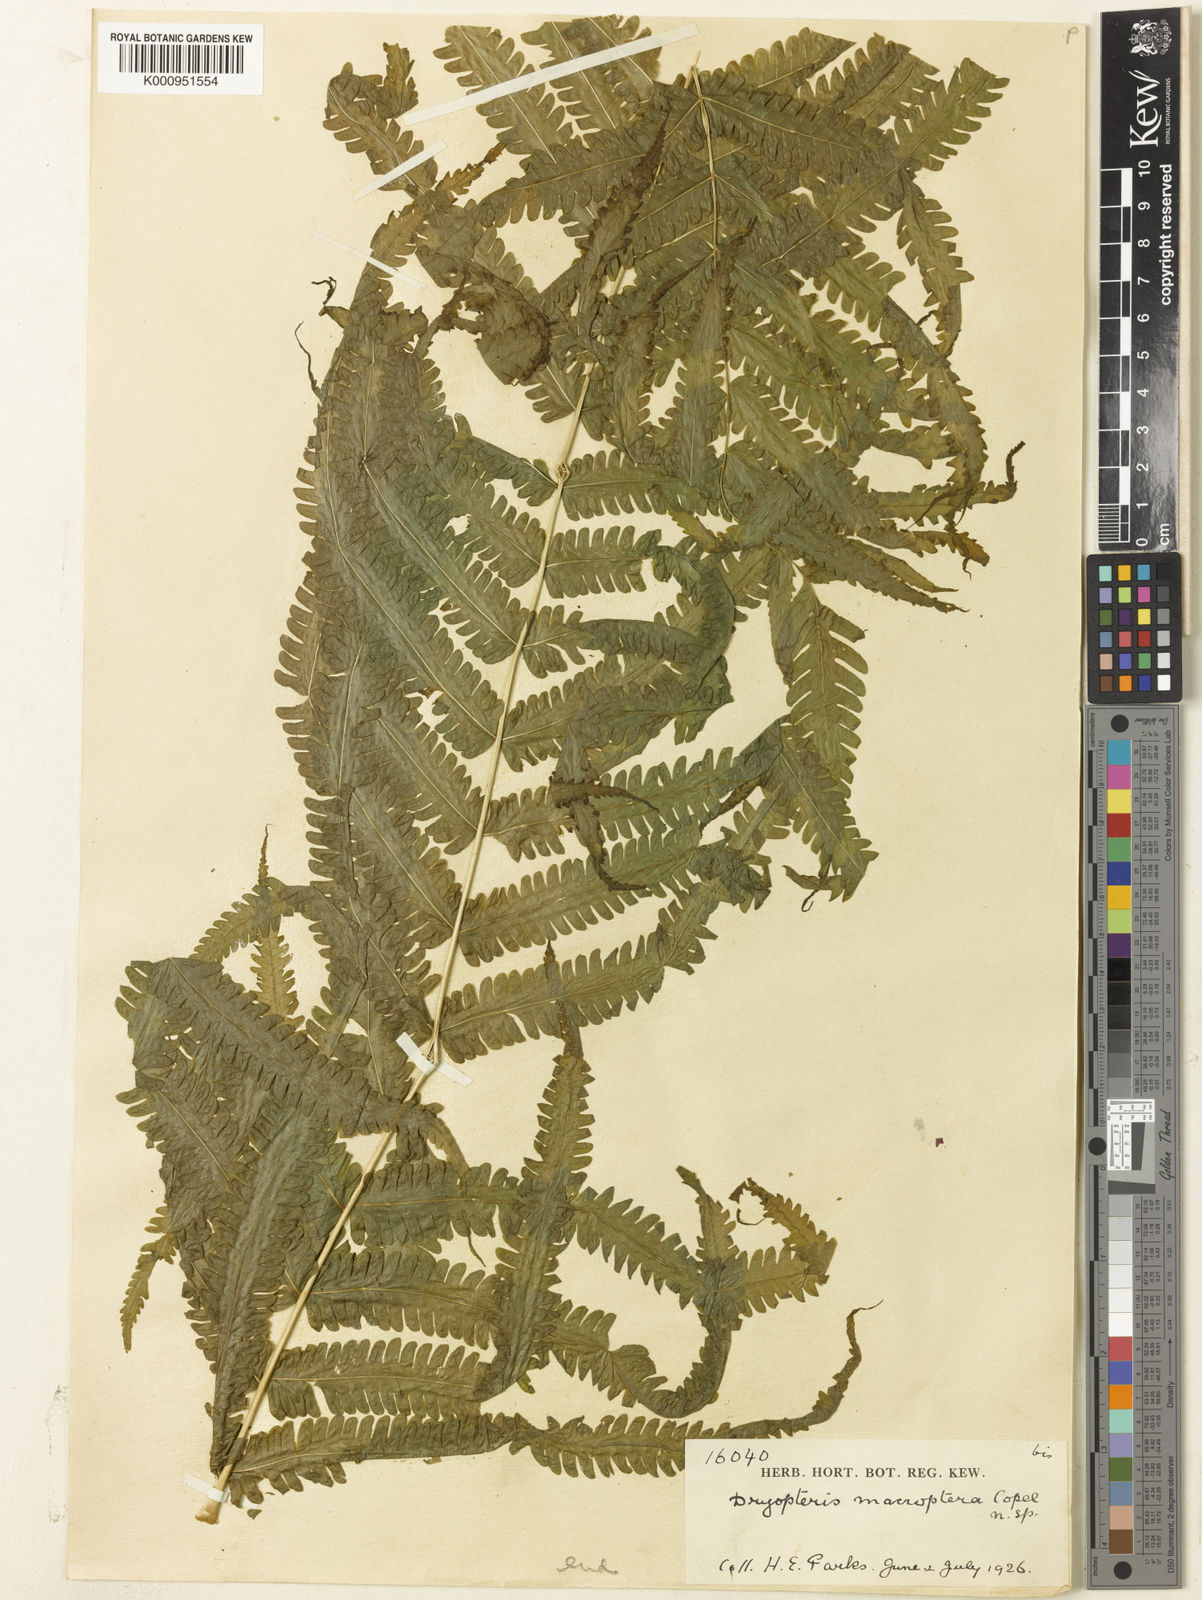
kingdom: Plantae
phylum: Tracheophyta
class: Polypodiopsida
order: Polypodiales
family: Thelypteridaceae
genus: Reholttumia
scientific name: Reholttumia macroptera
